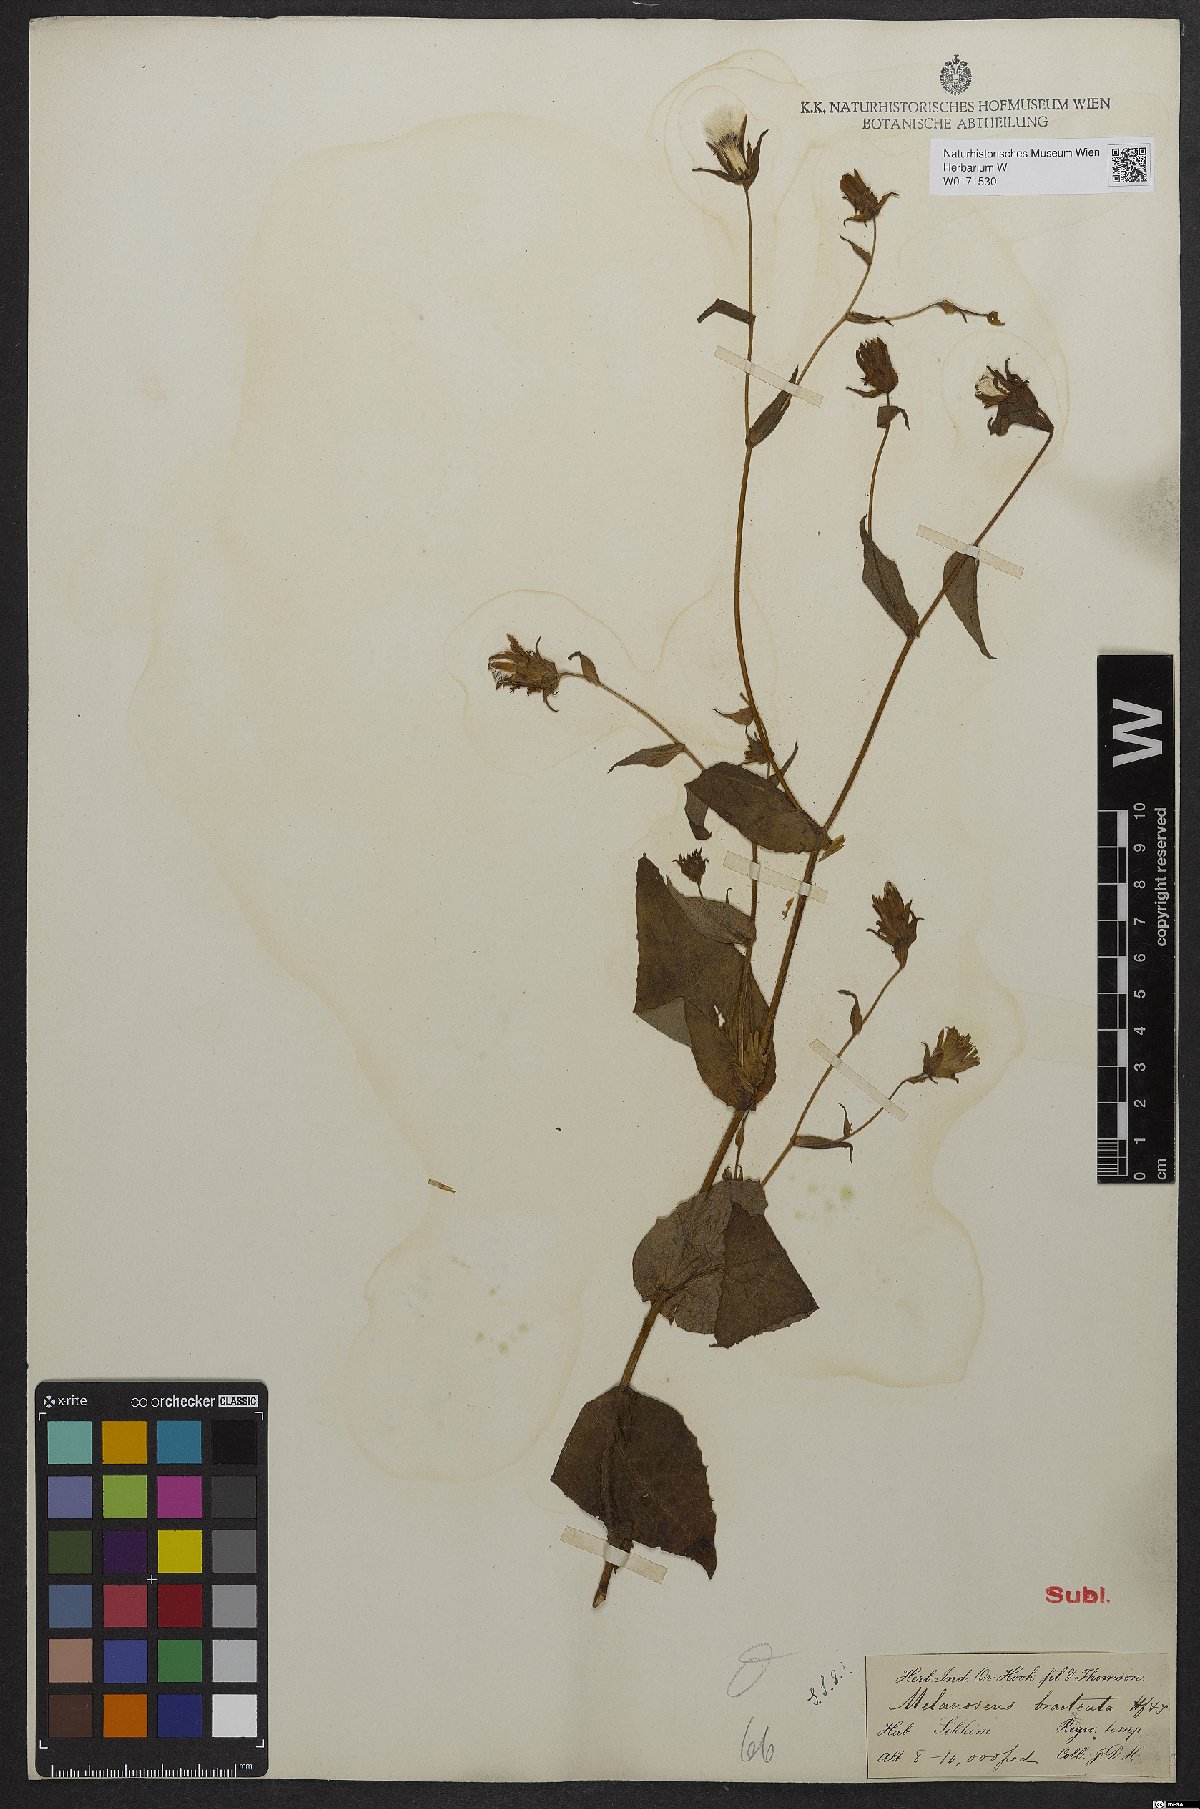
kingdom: Plantae
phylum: Tracheophyta
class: Magnoliopsida
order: Asterales
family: Asteraceae
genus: Lactuca
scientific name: Lactuca bracteata
